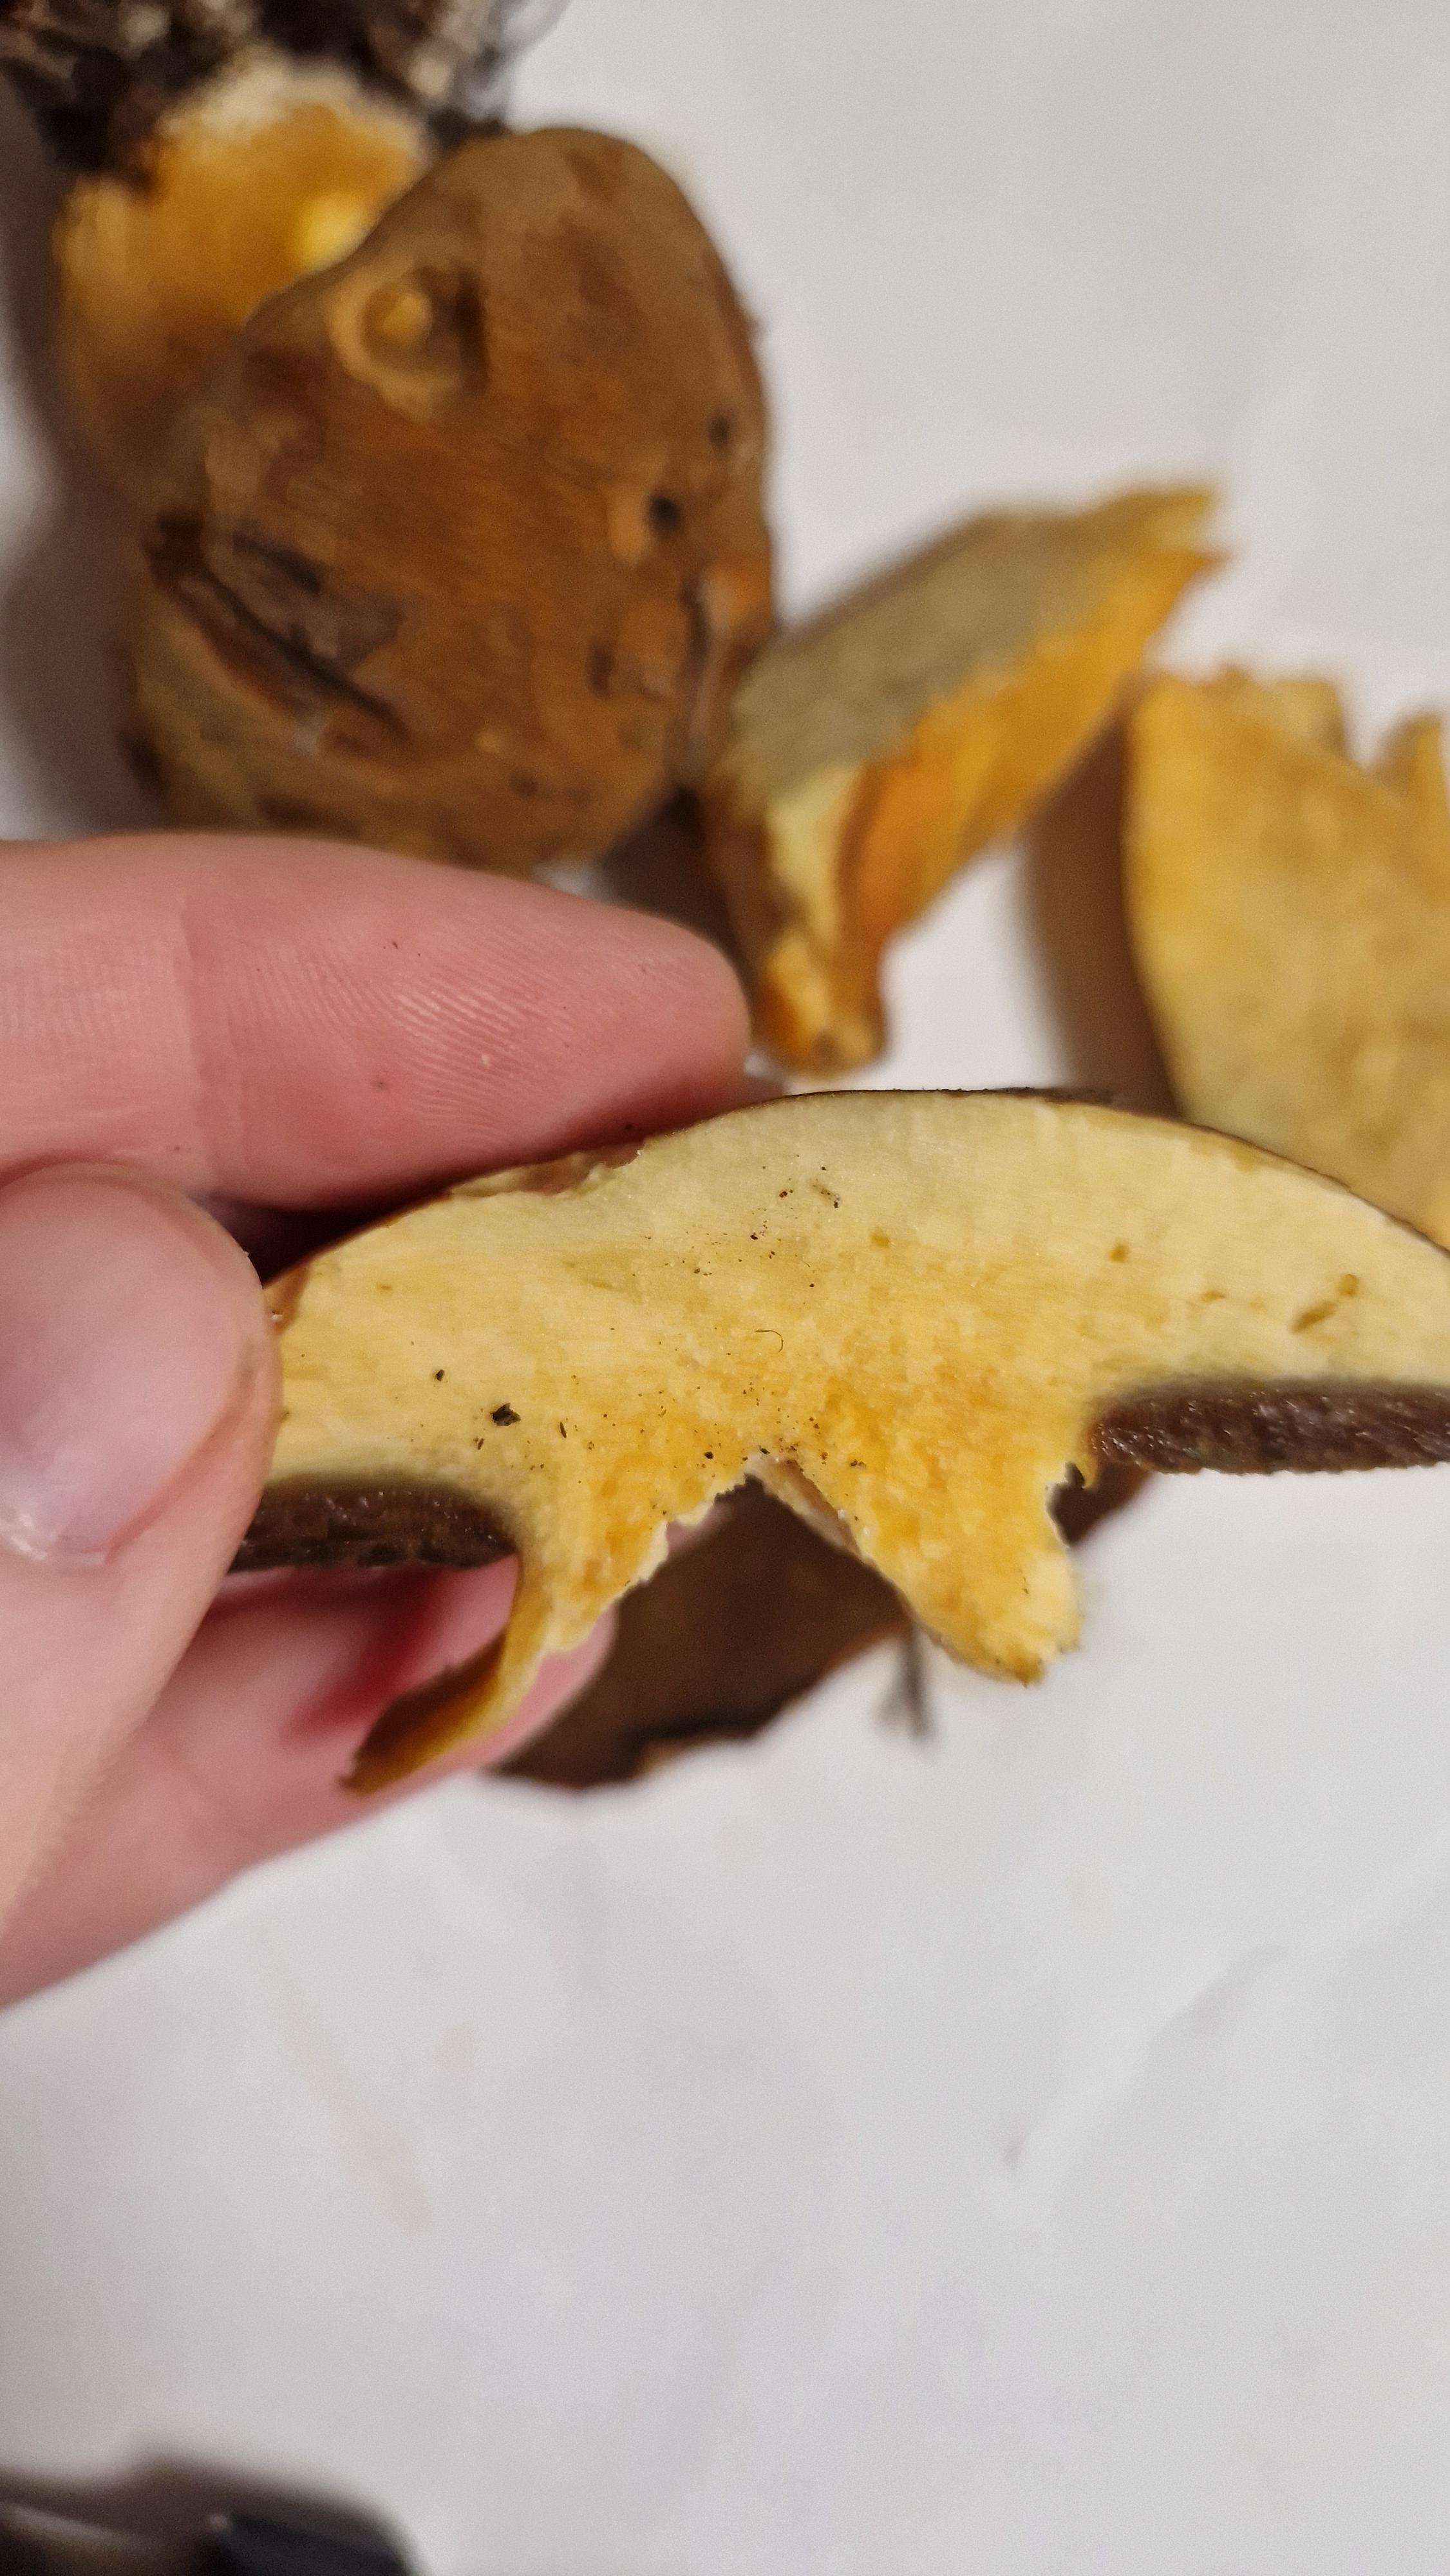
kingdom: Fungi
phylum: Basidiomycota
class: Agaricomycetes
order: Boletales
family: Suillaceae
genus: Suillus
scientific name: Suillus variegatus
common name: broget slimrørhat
